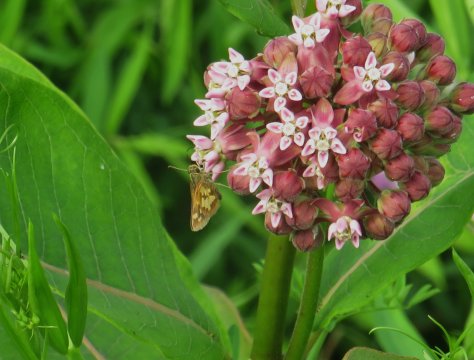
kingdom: Animalia
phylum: Arthropoda
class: Insecta
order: Lepidoptera
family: Hesperiidae
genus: Polites
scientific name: Polites coras
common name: Peck's Skipper
